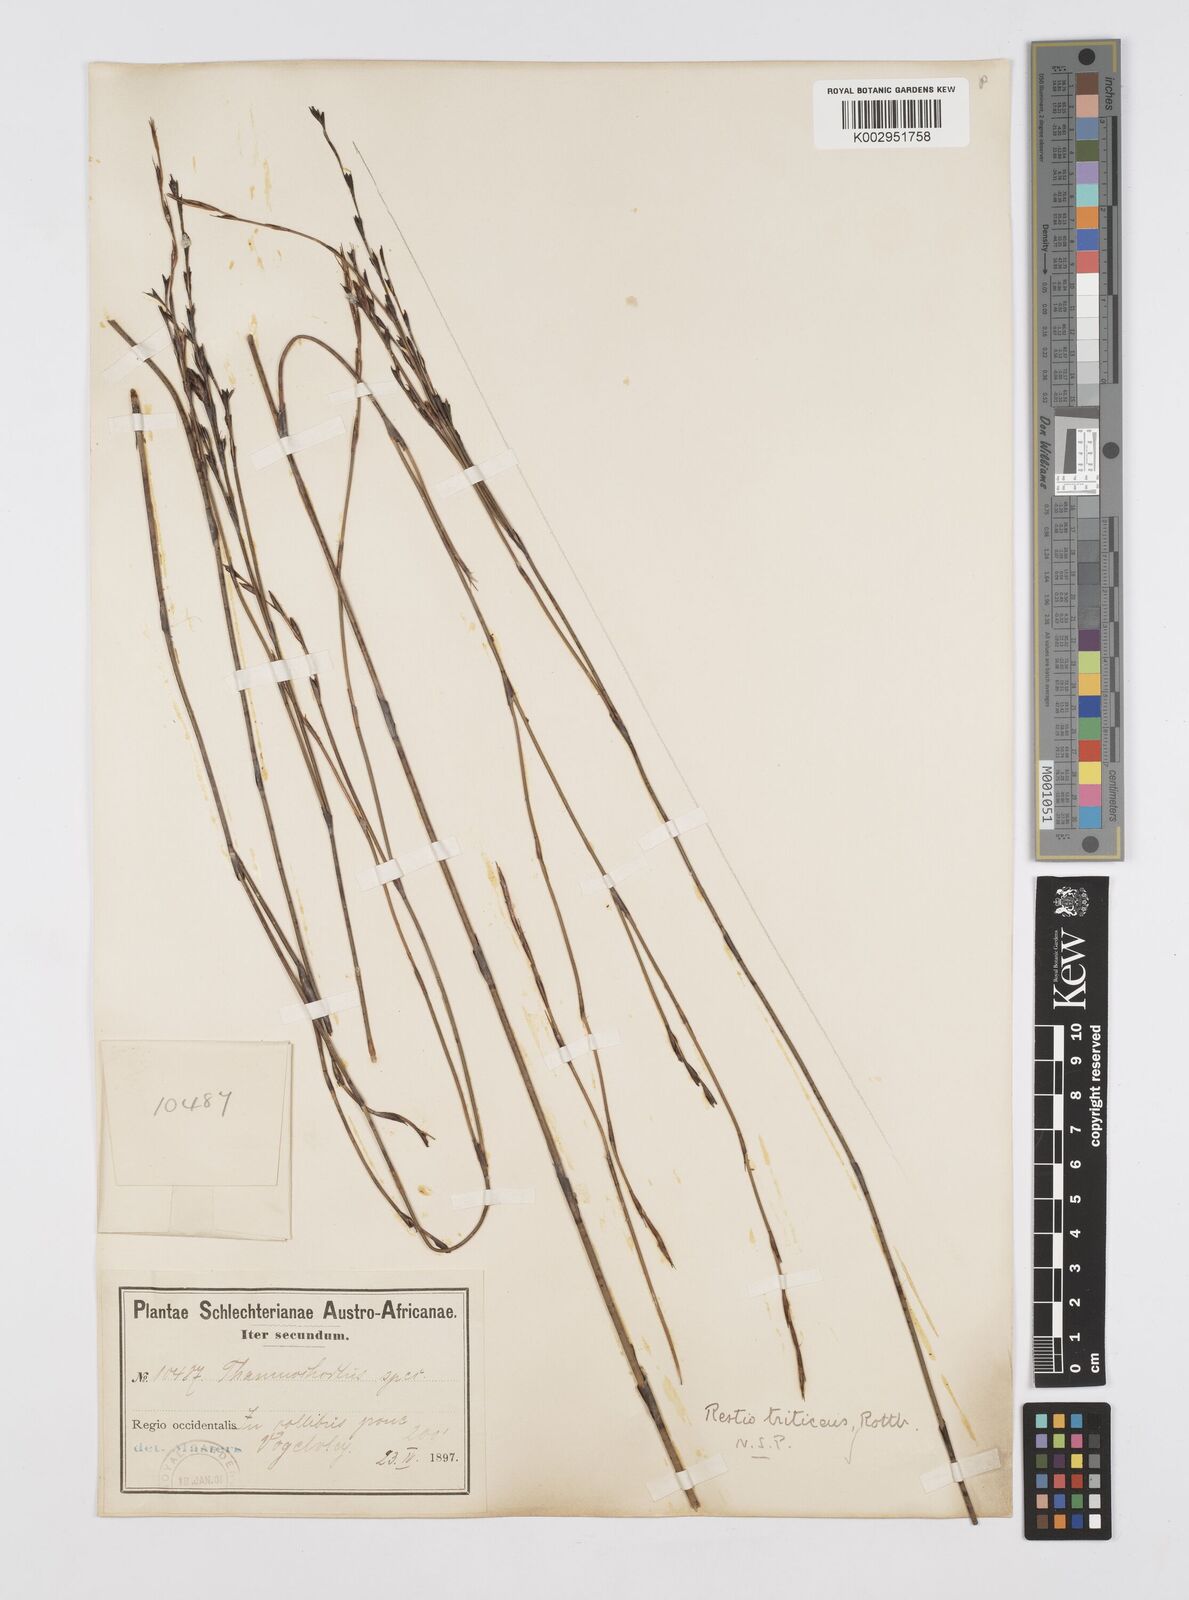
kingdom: Plantae
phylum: Tracheophyta
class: Liliopsida
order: Poales
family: Restionaceae
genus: Restio
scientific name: Restio triticeus
